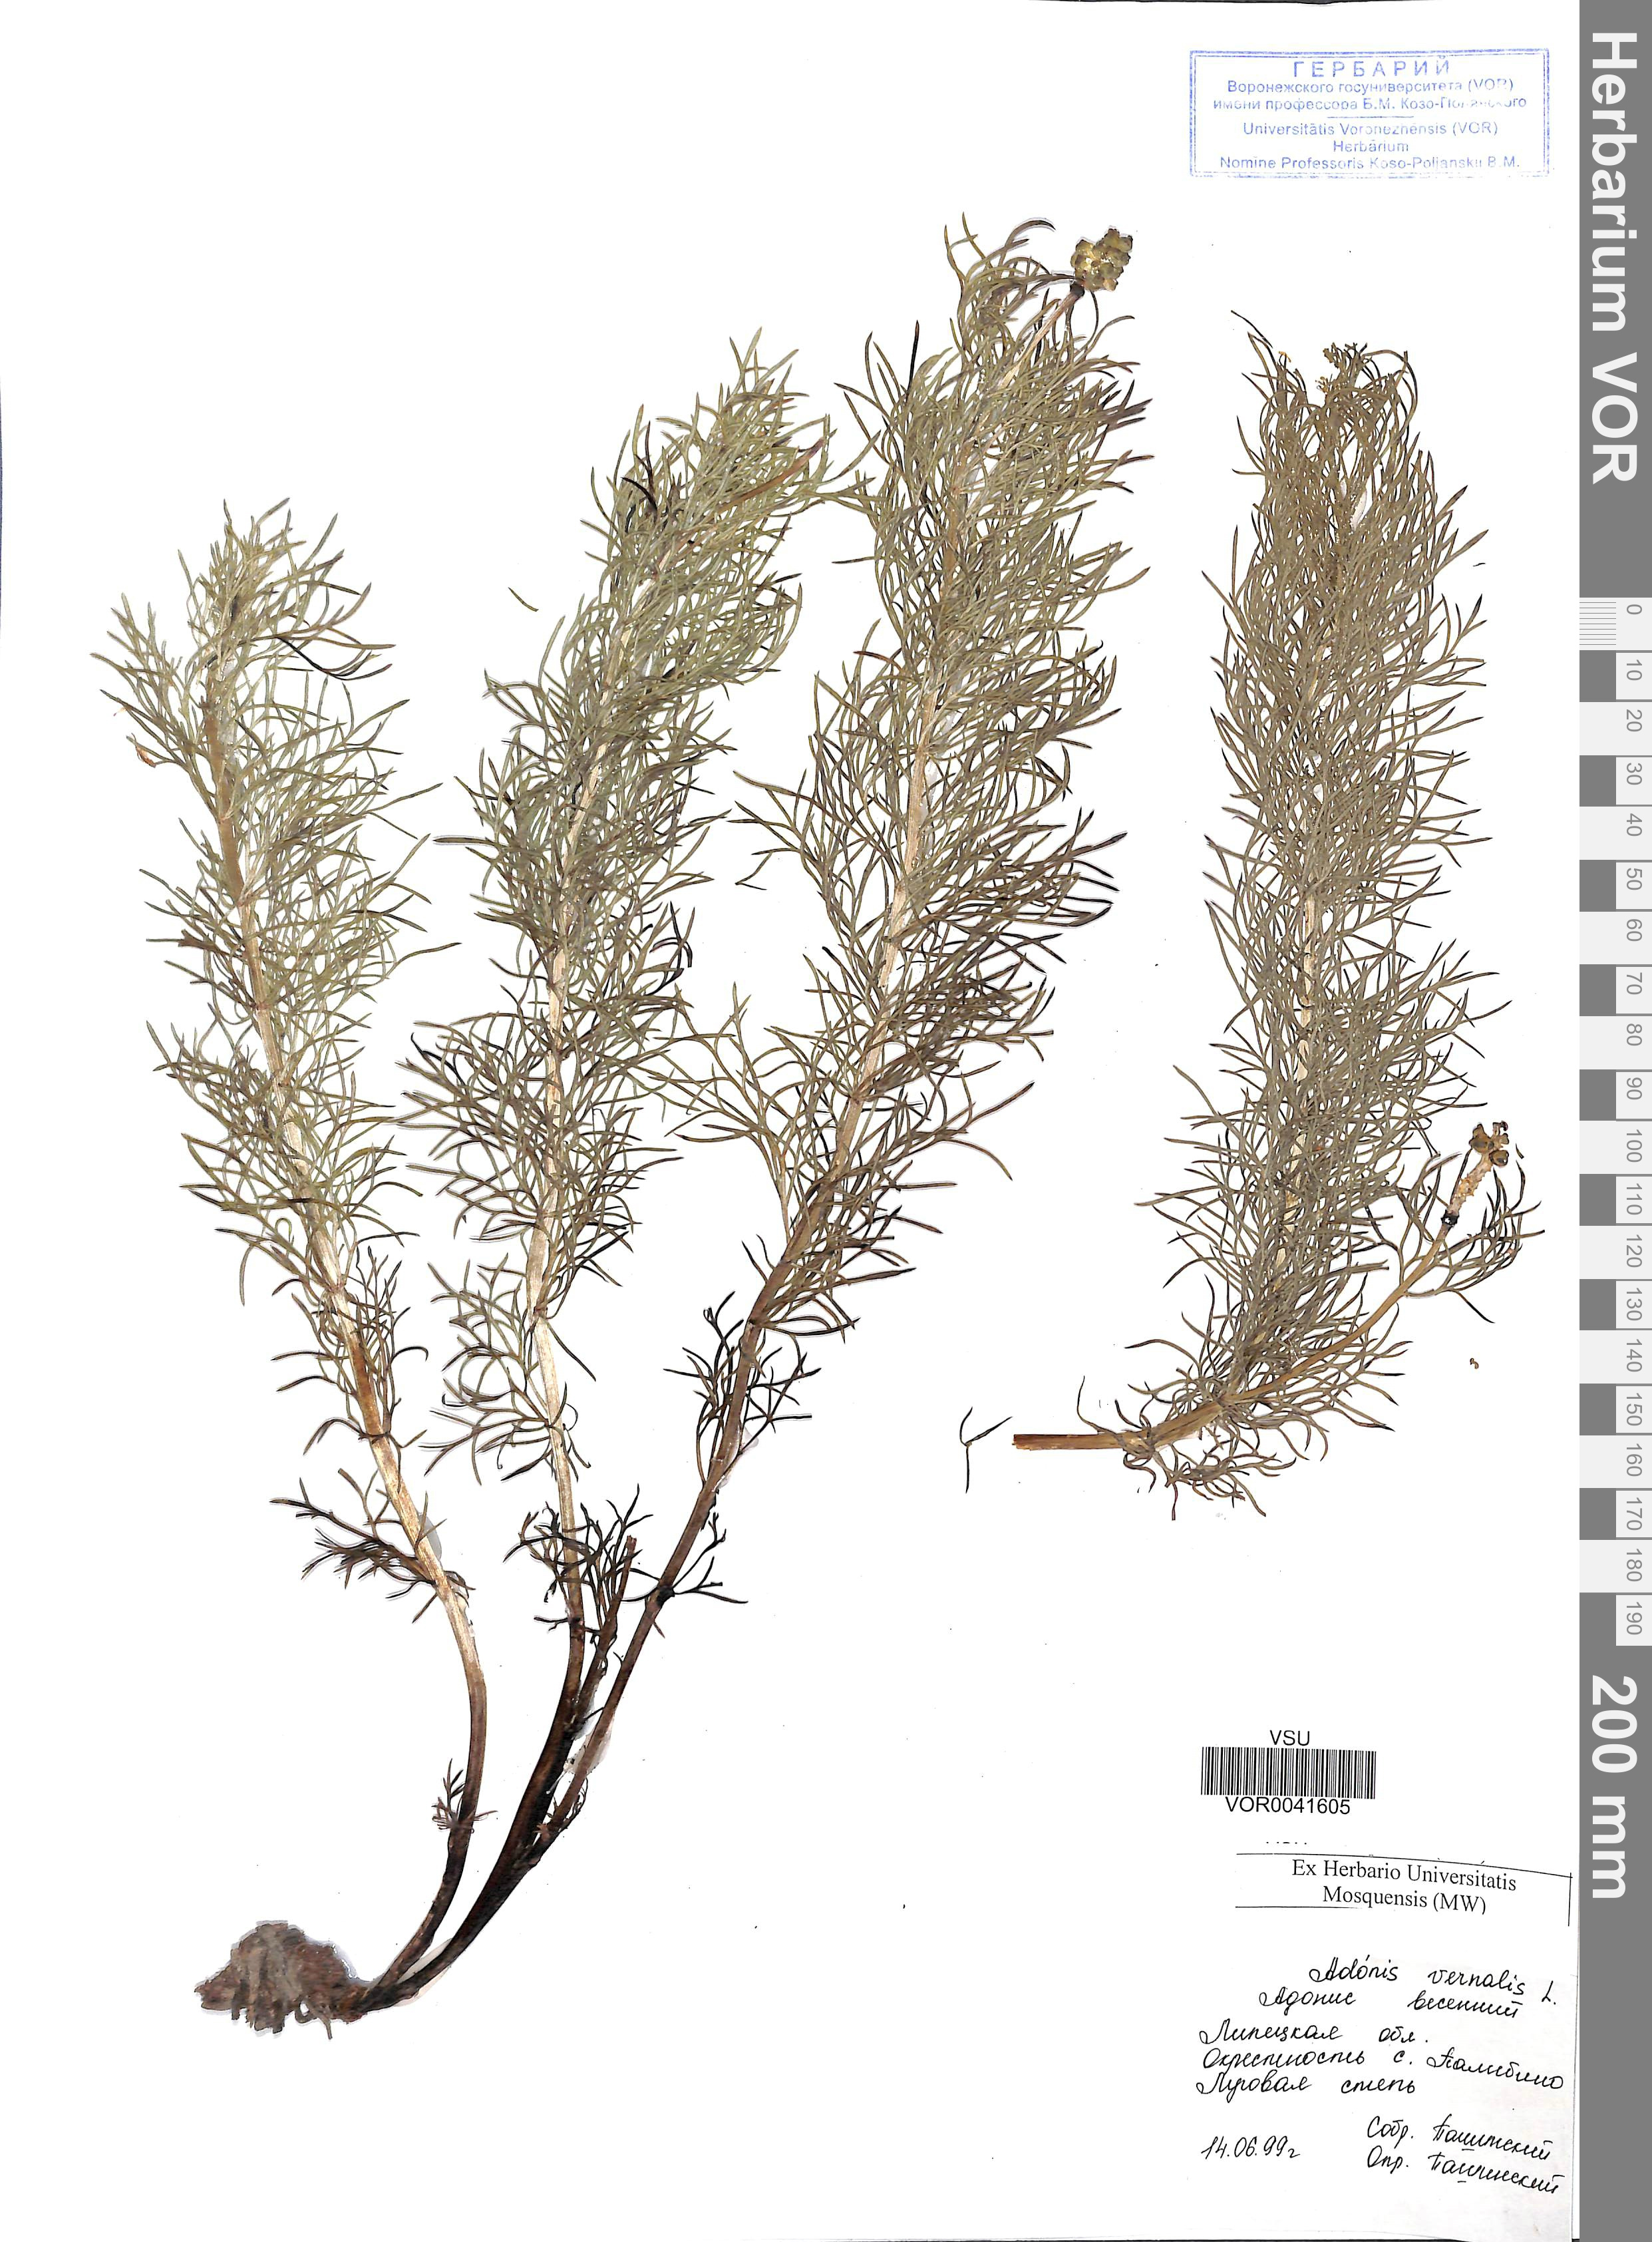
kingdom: Plantae
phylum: Tracheophyta
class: Magnoliopsida
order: Ranunculales
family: Ranunculaceae
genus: Adonis
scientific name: Adonis vernalis
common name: Yellow pheasants-eye
